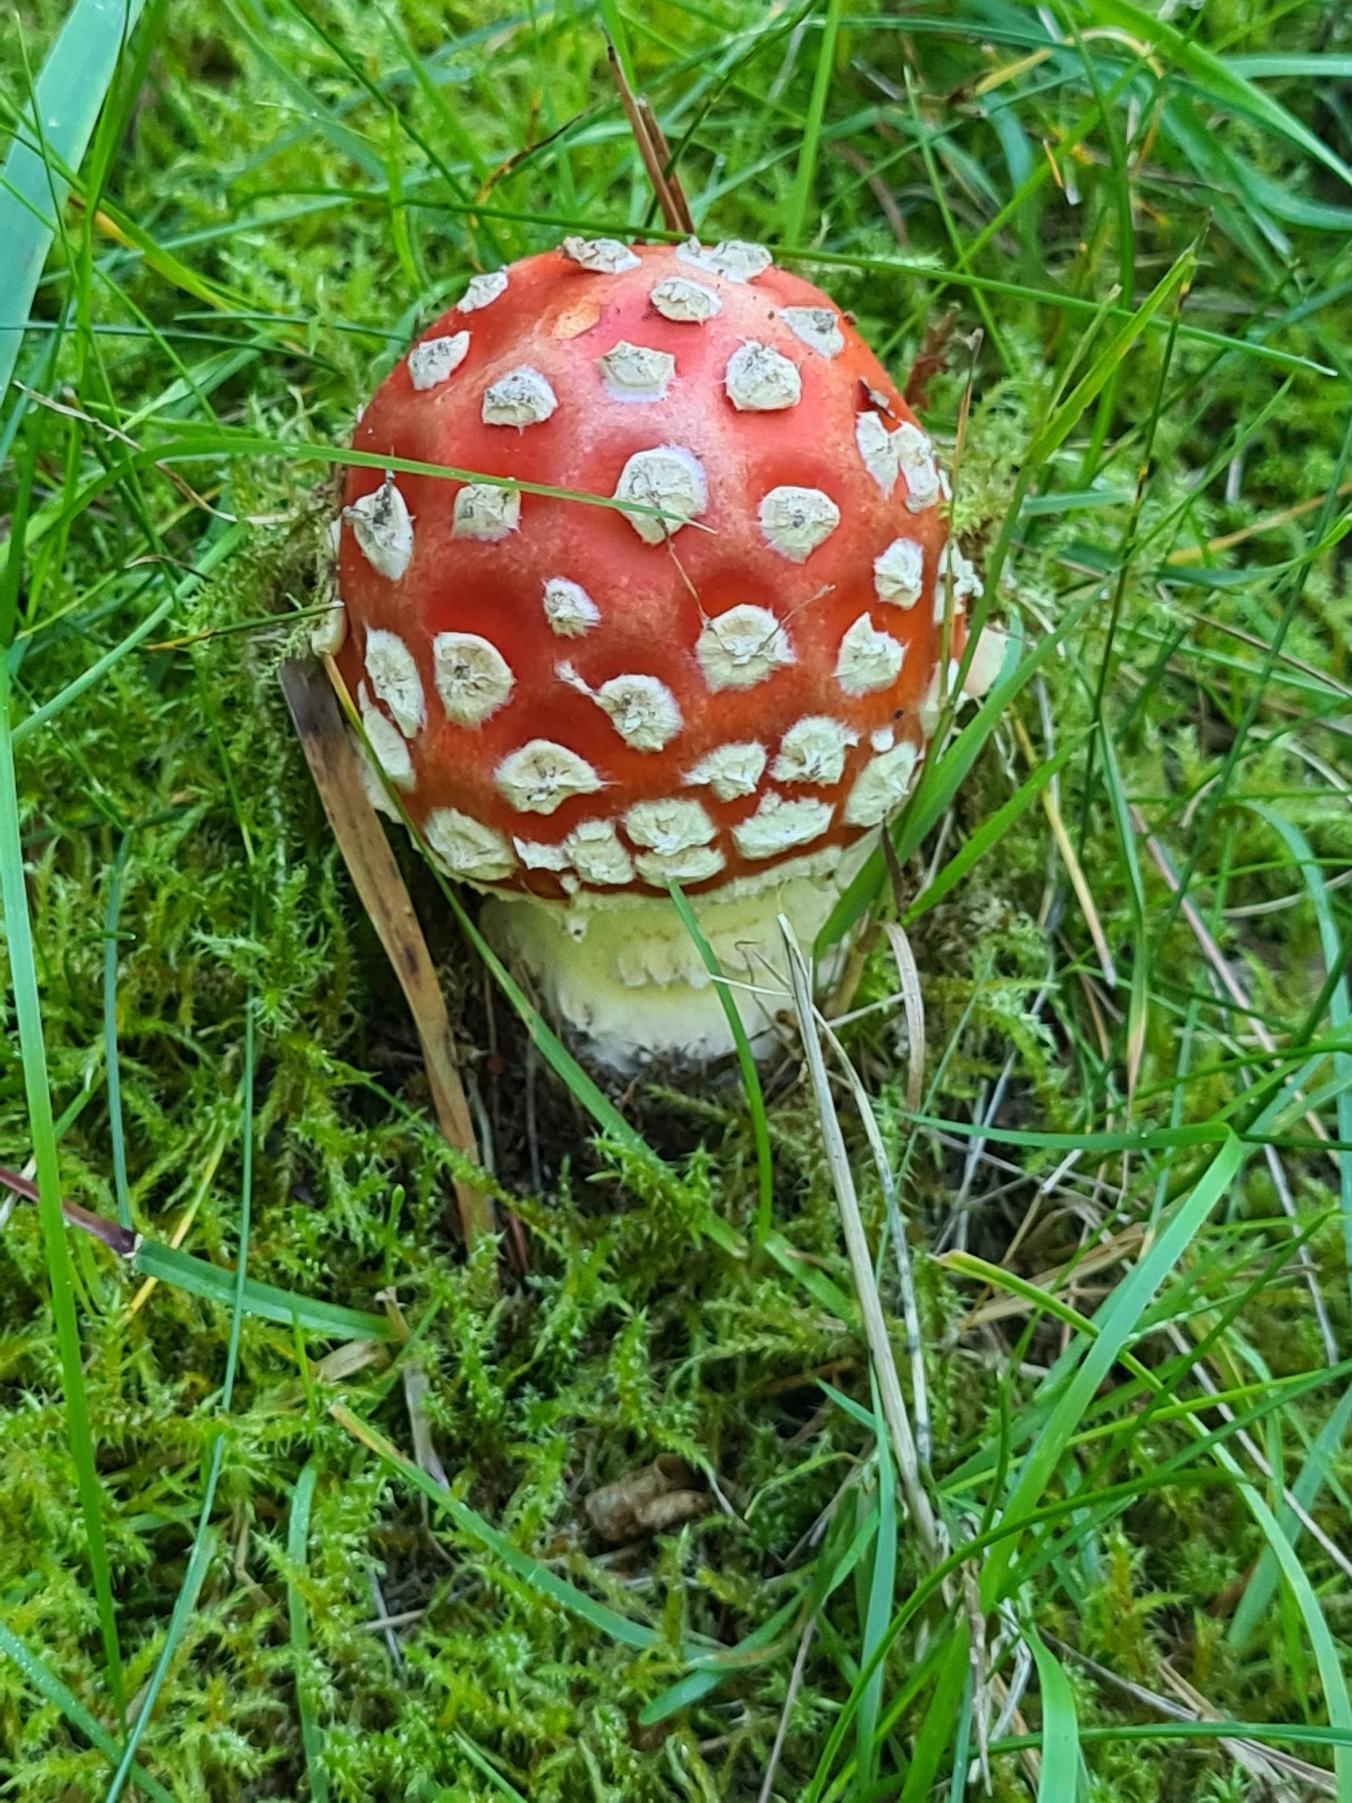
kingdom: Fungi
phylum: Basidiomycota
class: Agaricomycetes
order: Agaricales
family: Amanitaceae
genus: Amanita
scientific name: Amanita muscaria
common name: Rød fluesvamp
